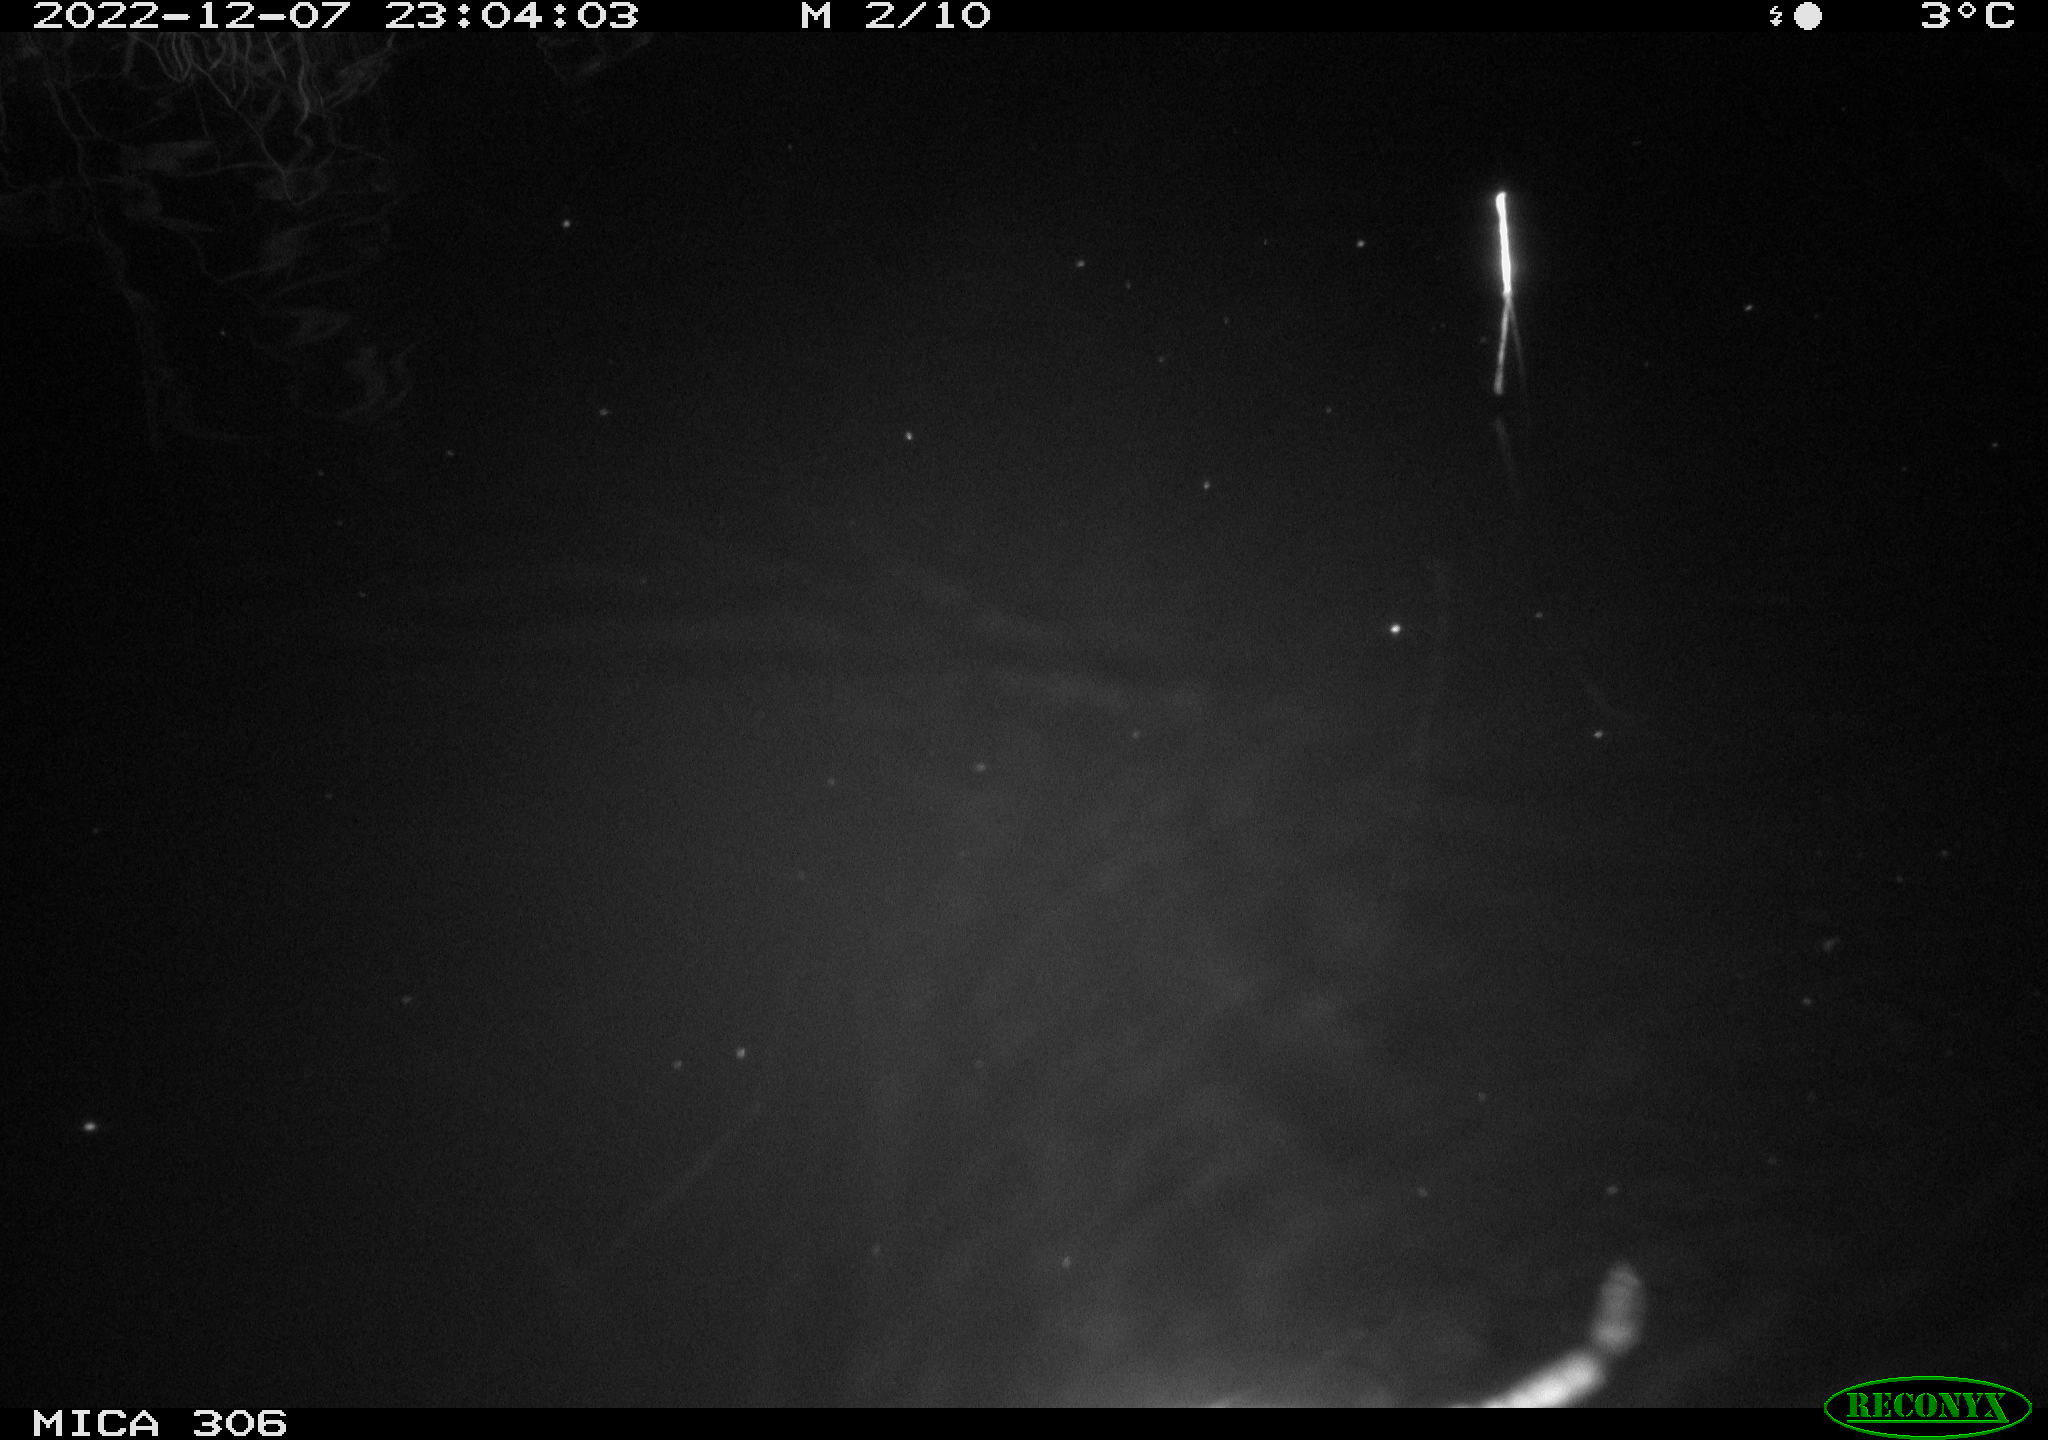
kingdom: Animalia
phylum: Chordata
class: Mammalia
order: Rodentia
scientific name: Rodentia
